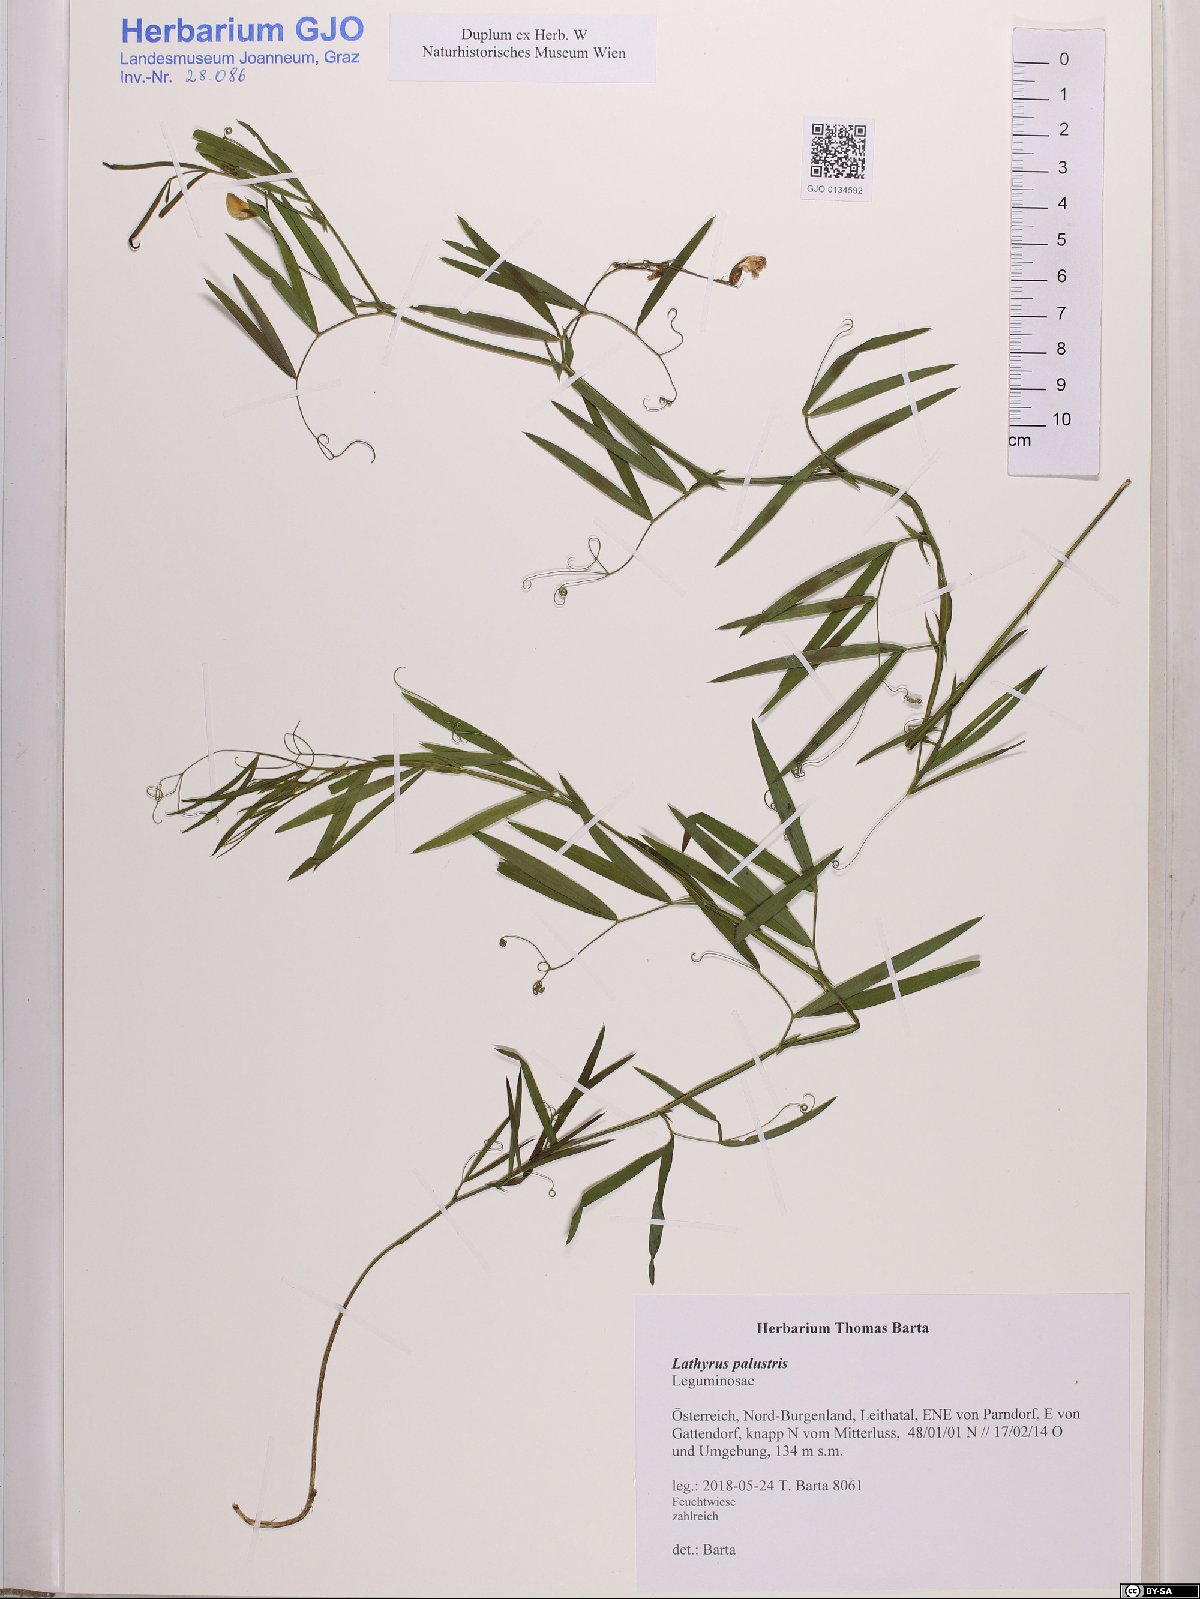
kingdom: Plantae
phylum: Tracheophyta
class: Magnoliopsida
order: Fabales
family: Fabaceae
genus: Lathyrus
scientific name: Lathyrus palustris
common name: Marsh pea
